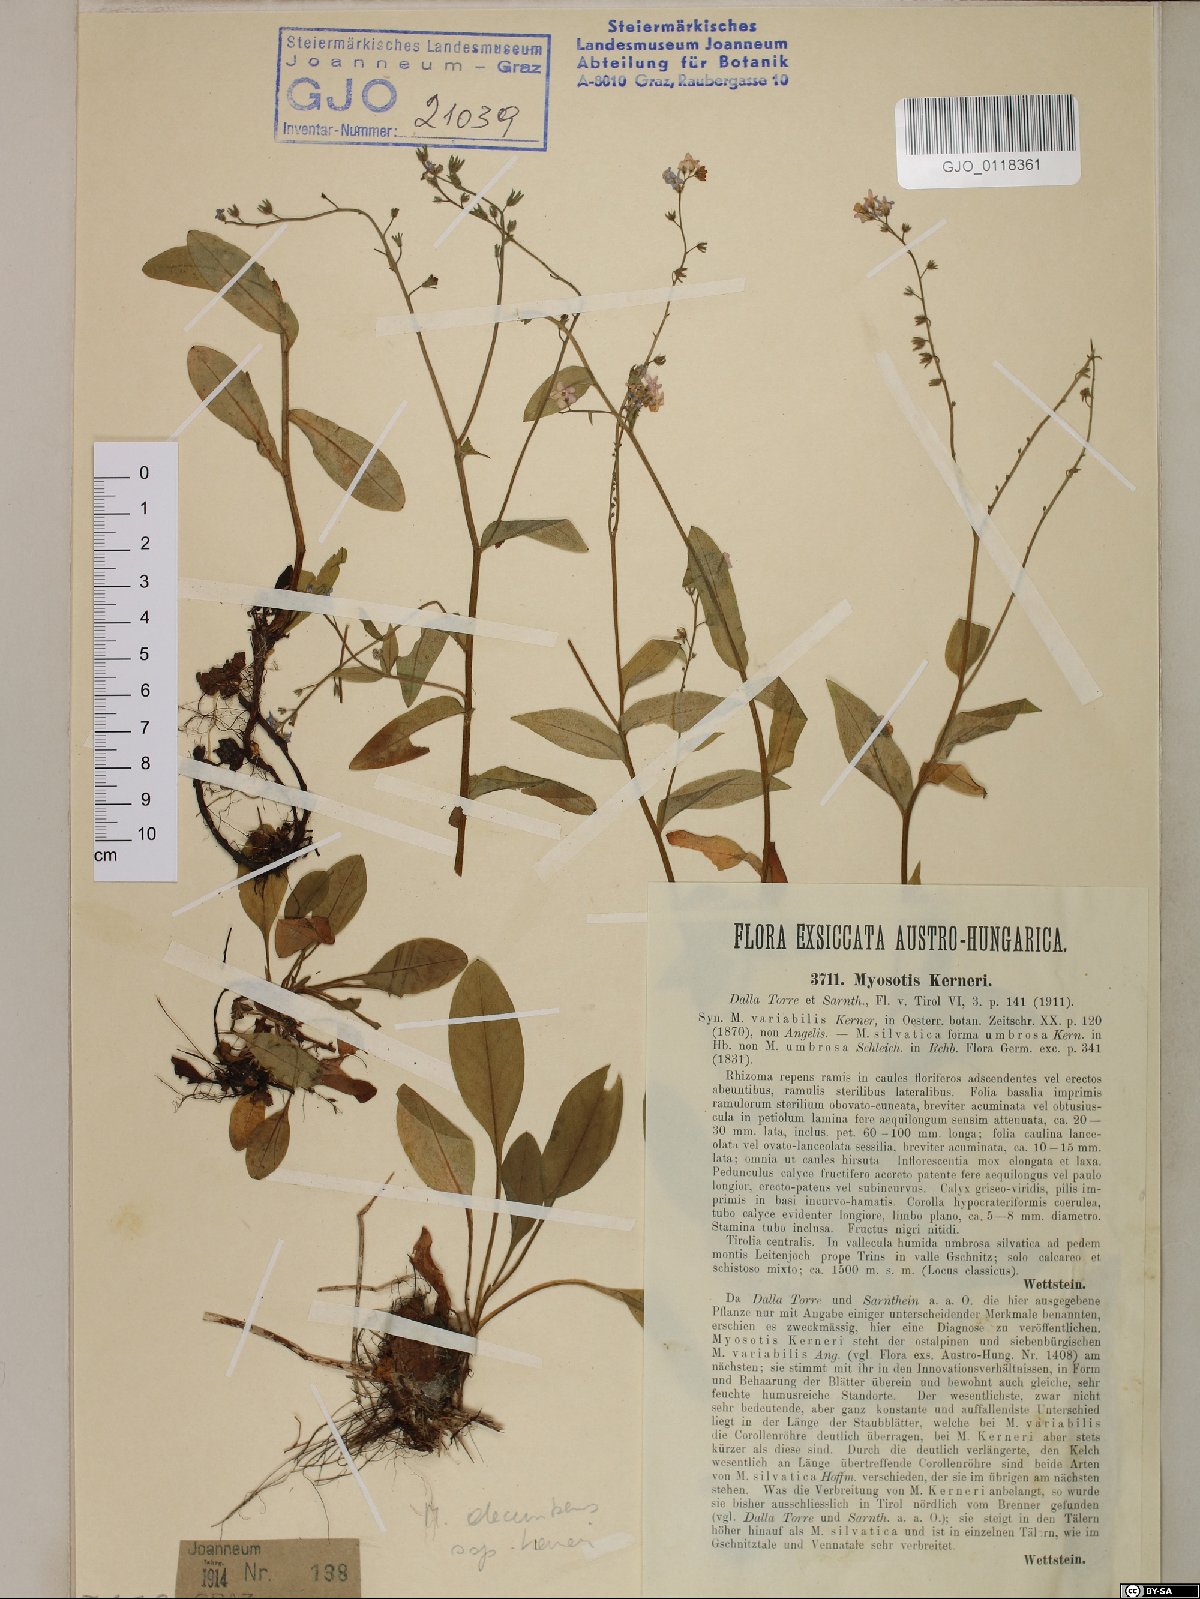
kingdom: Plantae
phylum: Tracheophyta
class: Magnoliopsida
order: Boraginales
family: Boraginaceae
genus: Myosotis
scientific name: Myosotis decumbens
